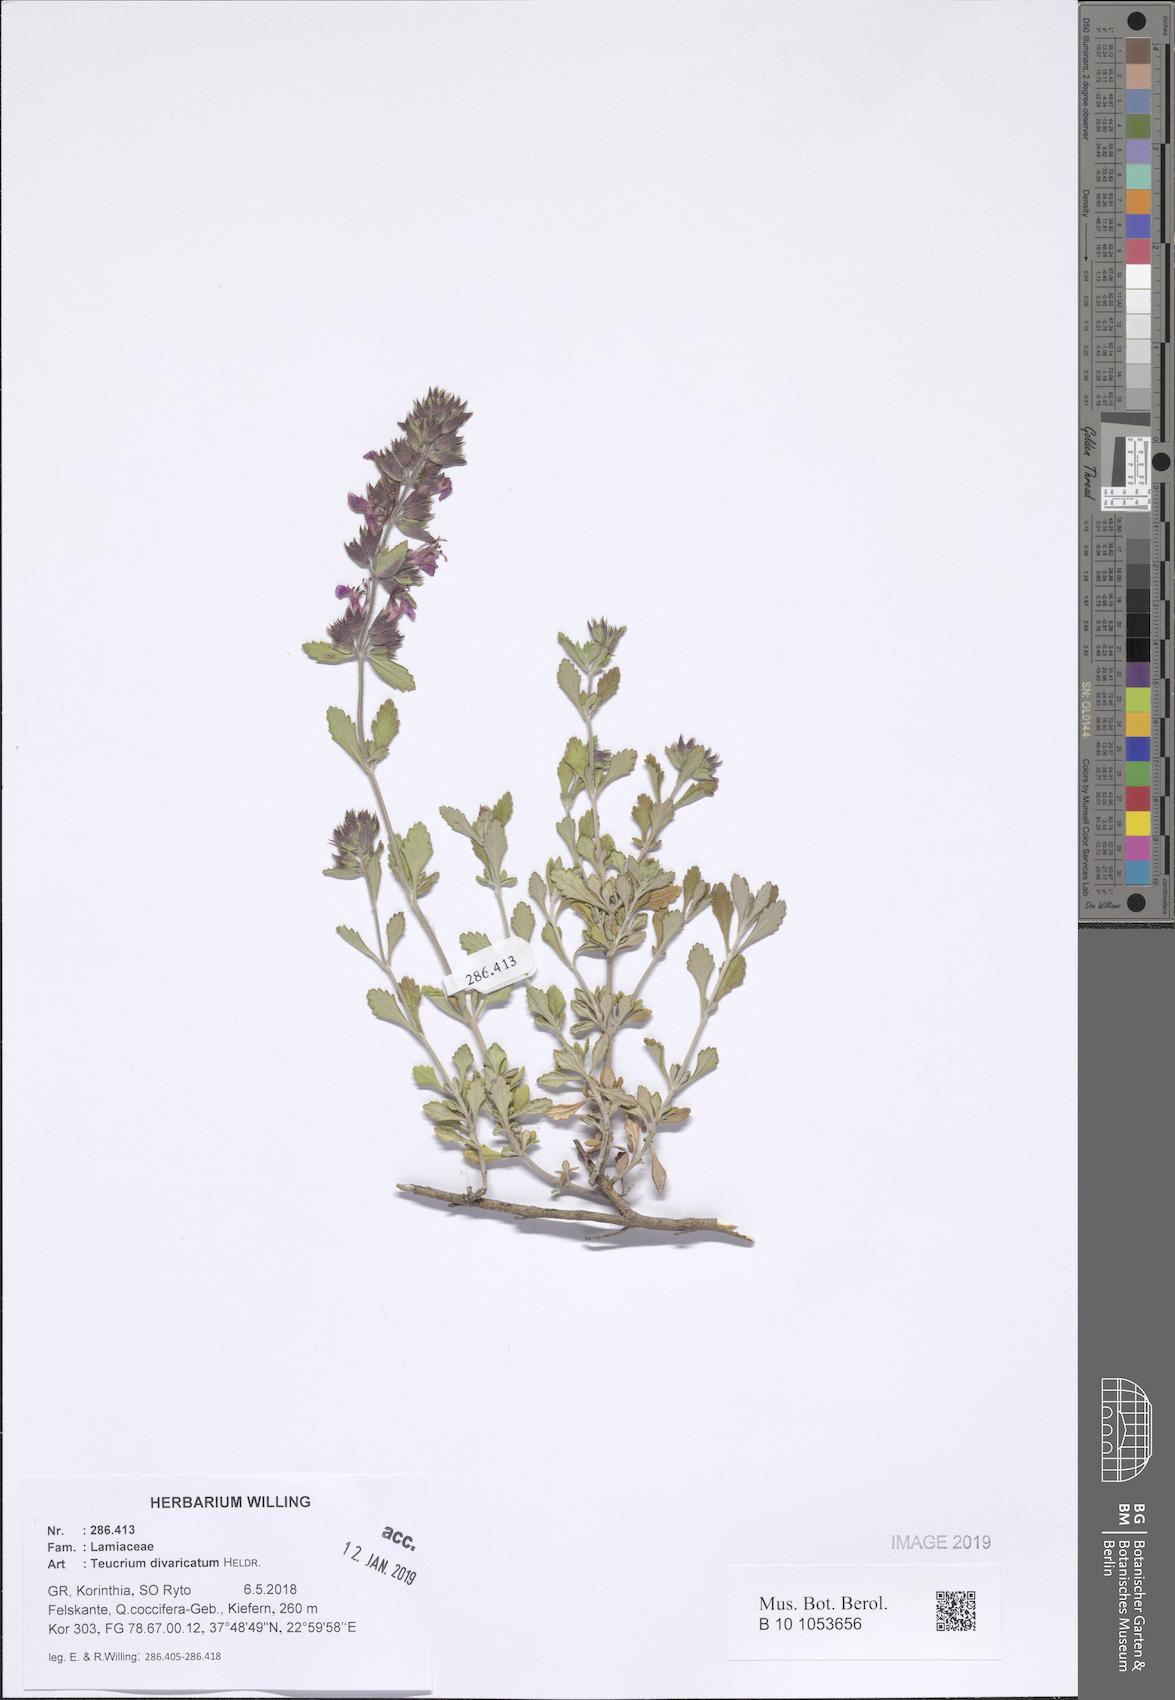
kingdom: Plantae
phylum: Tracheophyta
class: Magnoliopsida
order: Lamiales
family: Lamiaceae
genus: Teucrium
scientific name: Teucrium divaricatum
